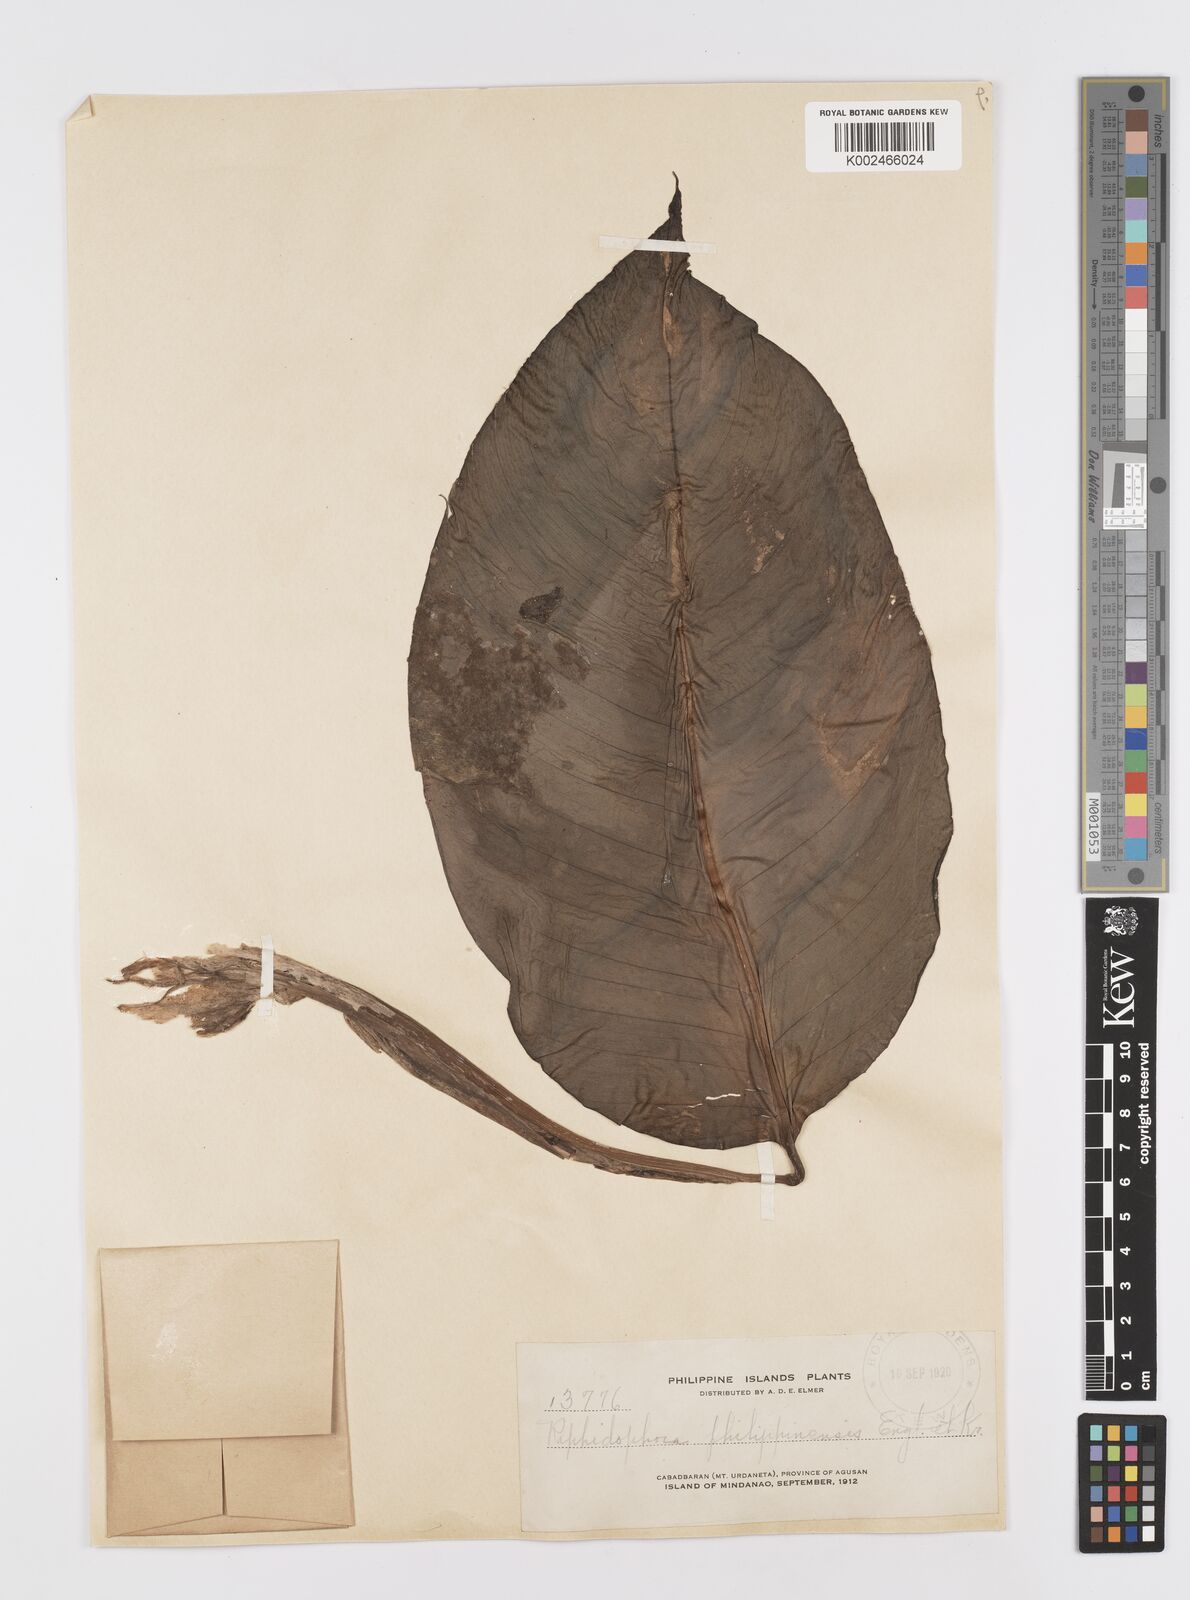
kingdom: Plantae
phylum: Tracheophyta
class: Liliopsida
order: Alismatales
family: Araceae
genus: Rhaphidophora
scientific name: Rhaphidophora philippinensis
